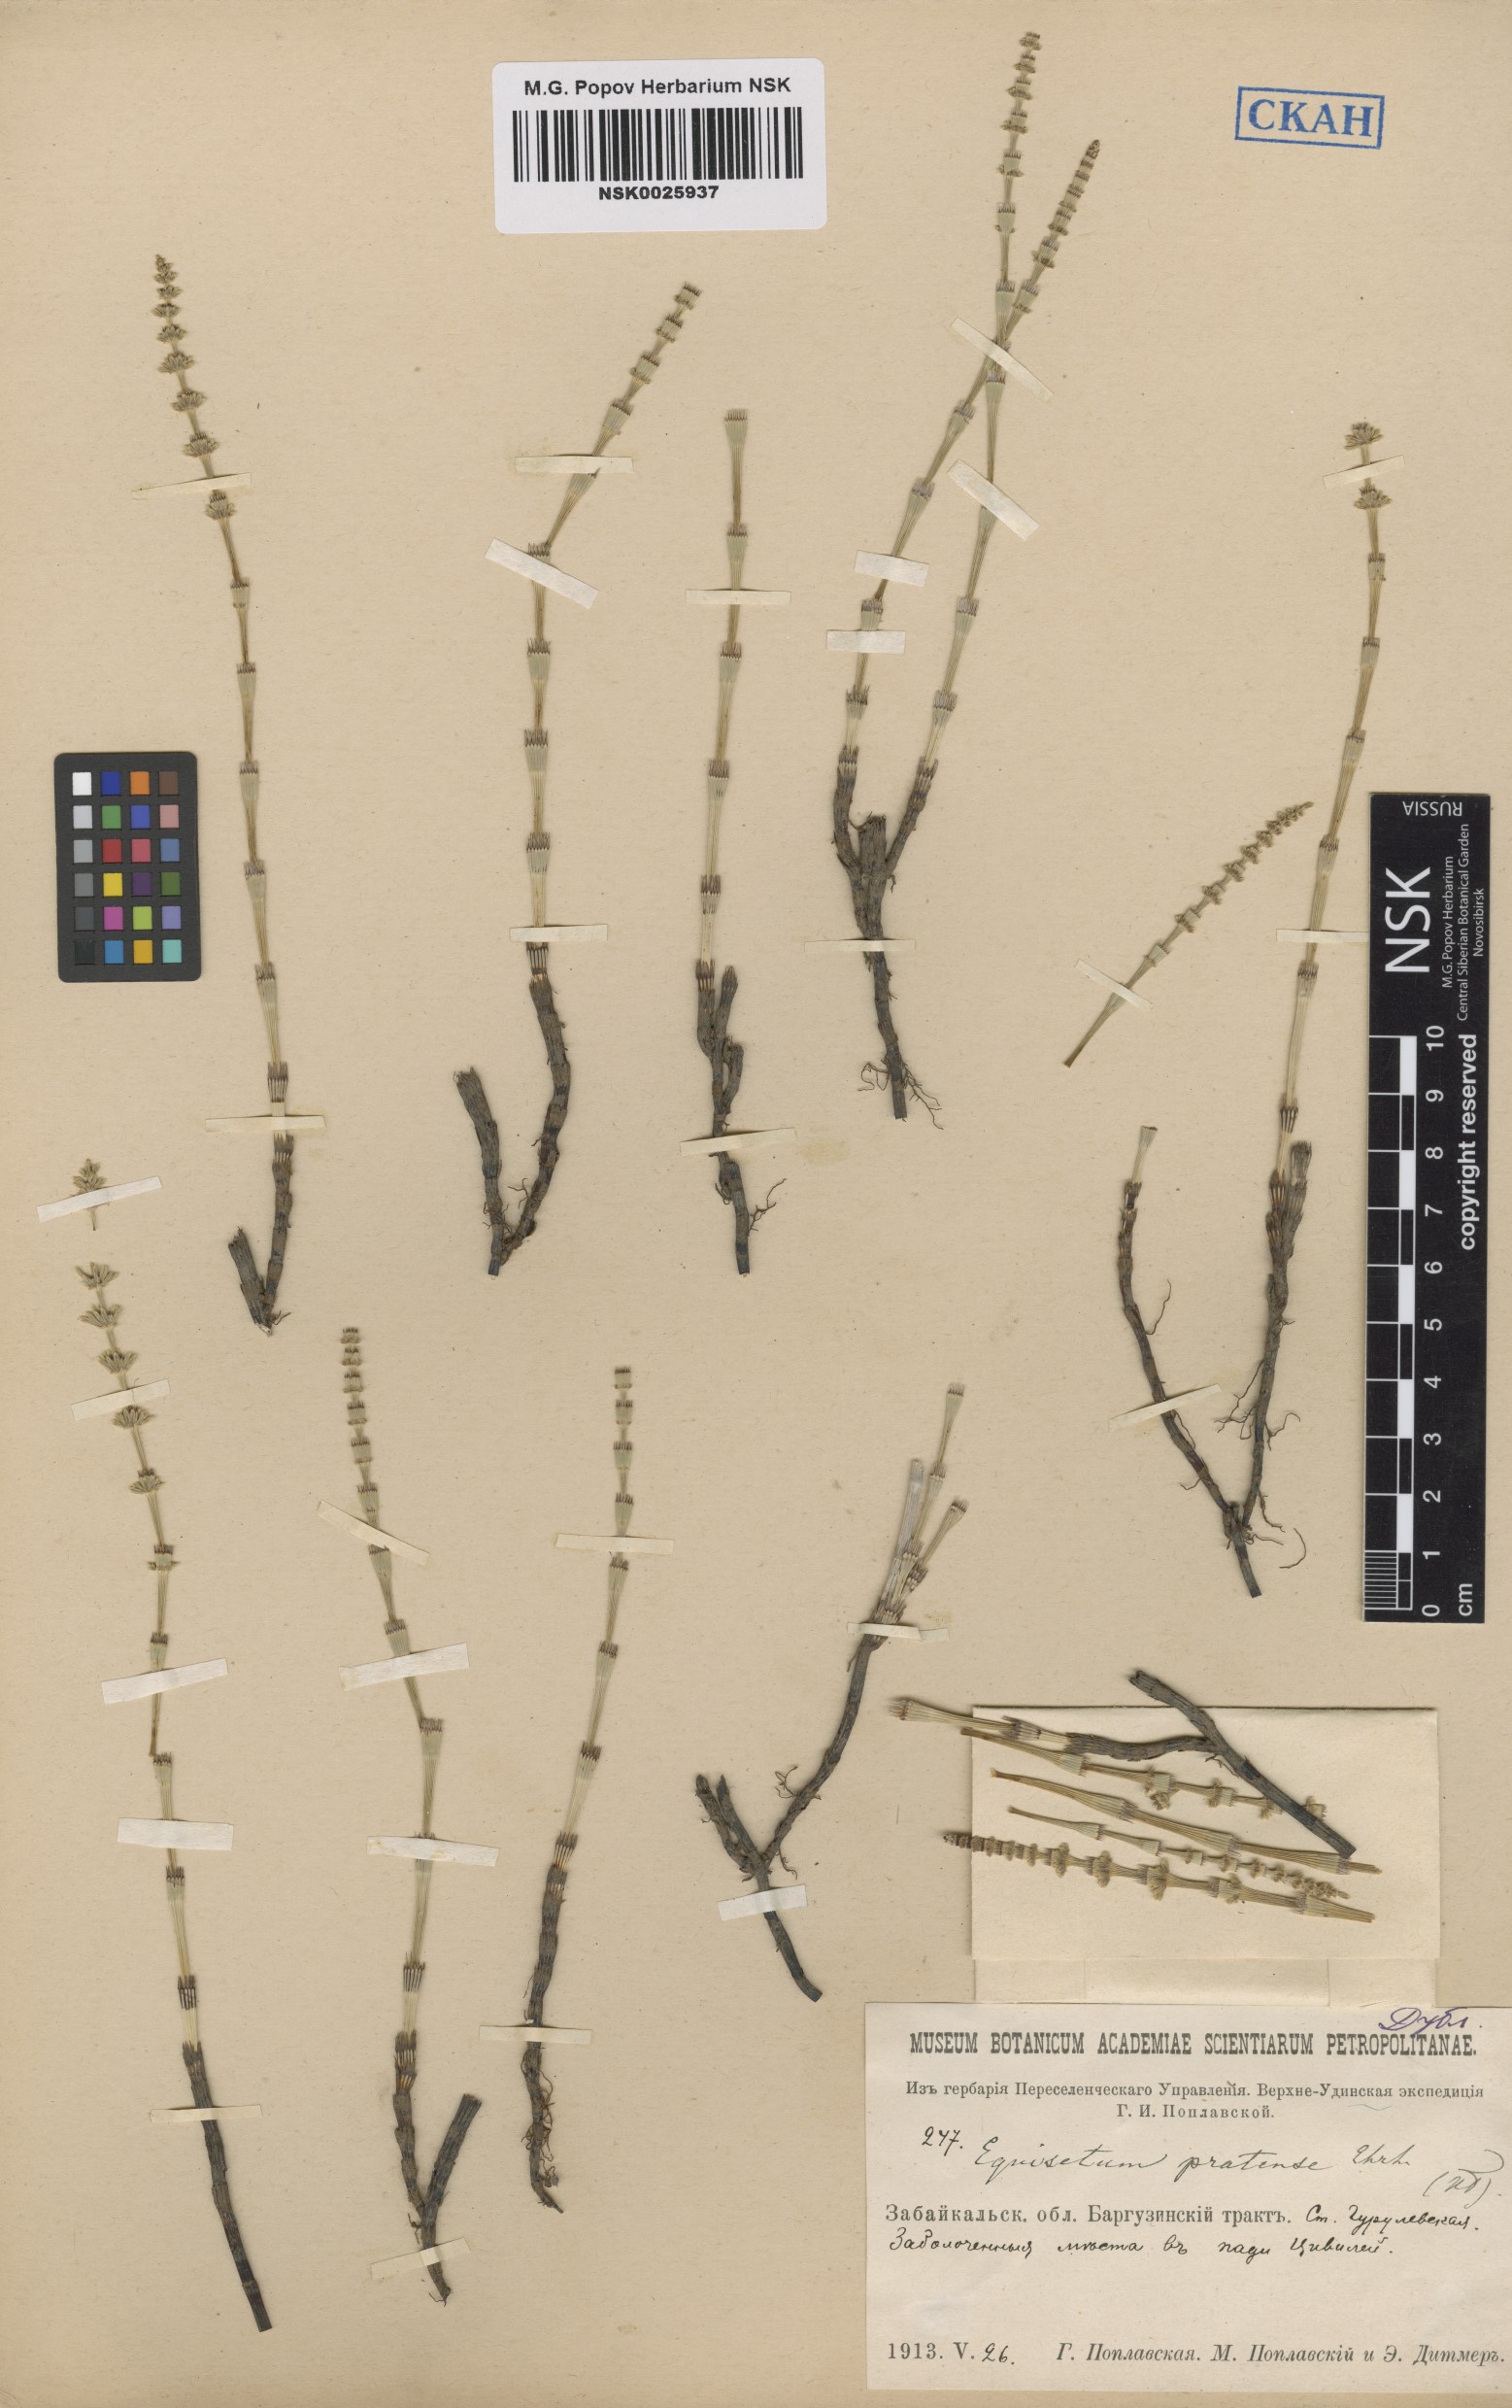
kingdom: Plantae
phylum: Tracheophyta
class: Polypodiopsida
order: Equisetales
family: Equisetaceae
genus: Equisetum
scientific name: Equisetum pratense
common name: Meadow horsetail
